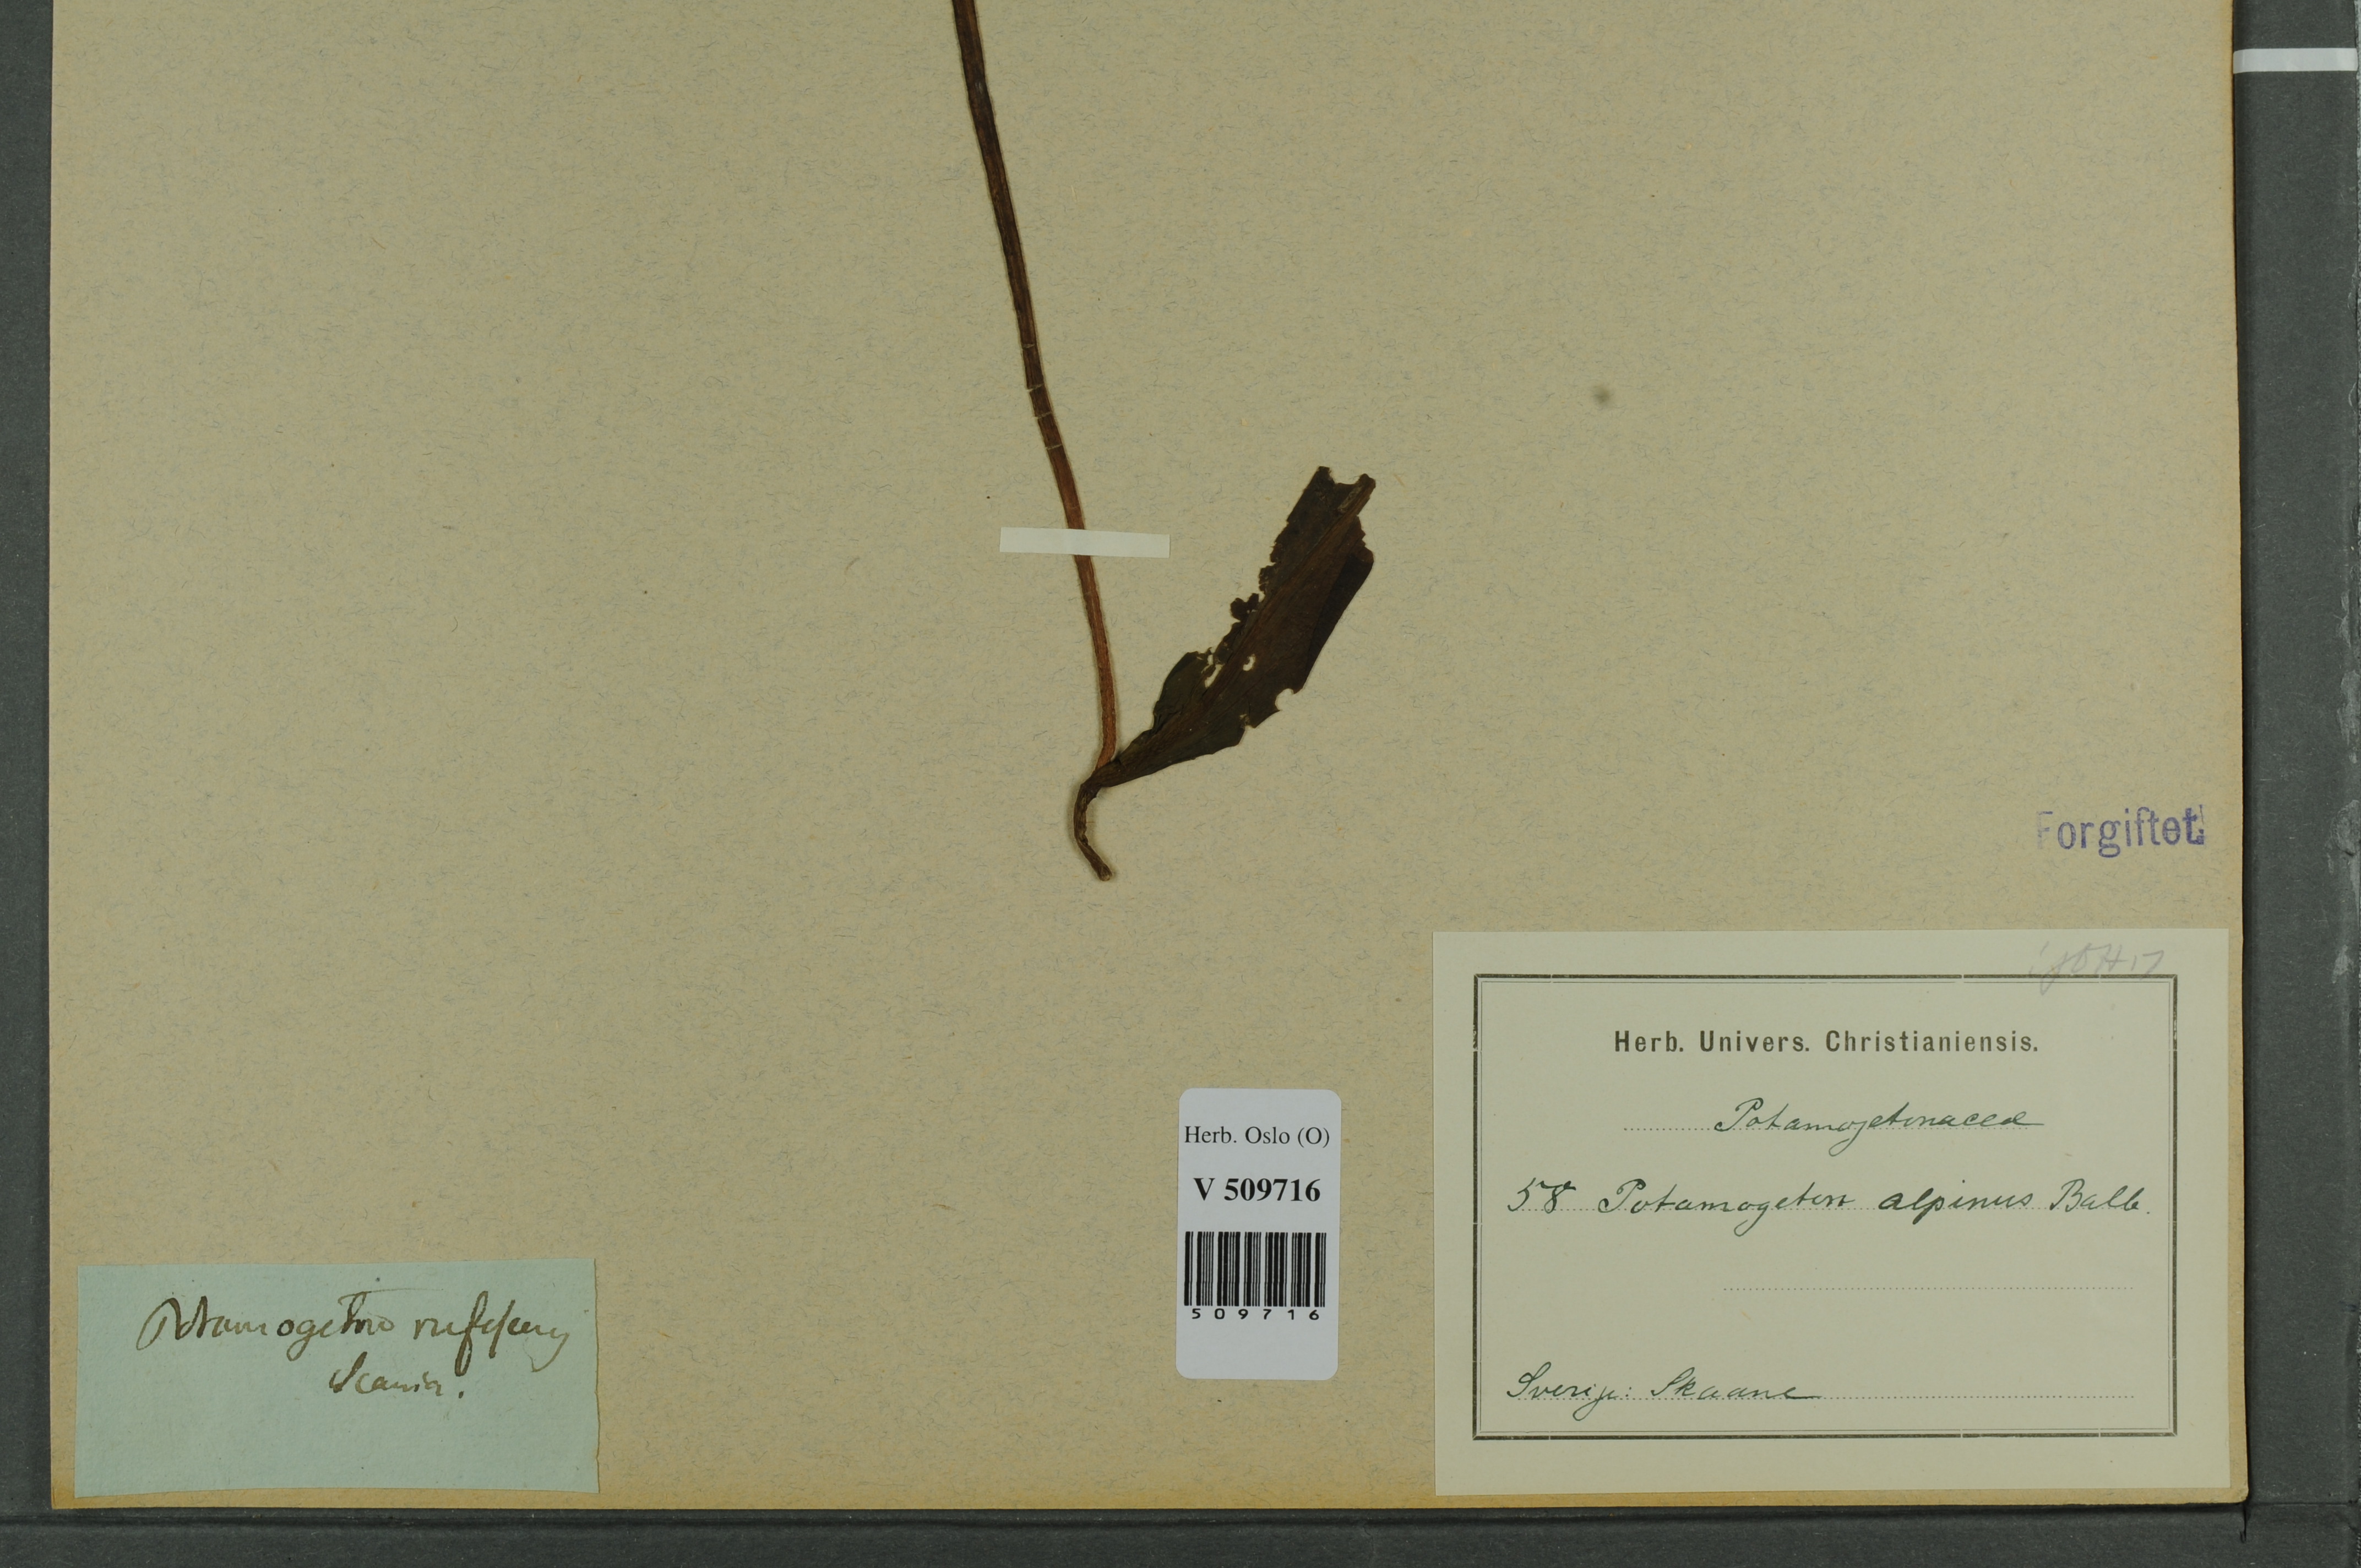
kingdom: Plantae
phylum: Tracheophyta
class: Liliopsida
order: Alismatales
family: Potamogetonaceae
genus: Potamogeton
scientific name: Potamogeton alpinus
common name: Red pondweed
